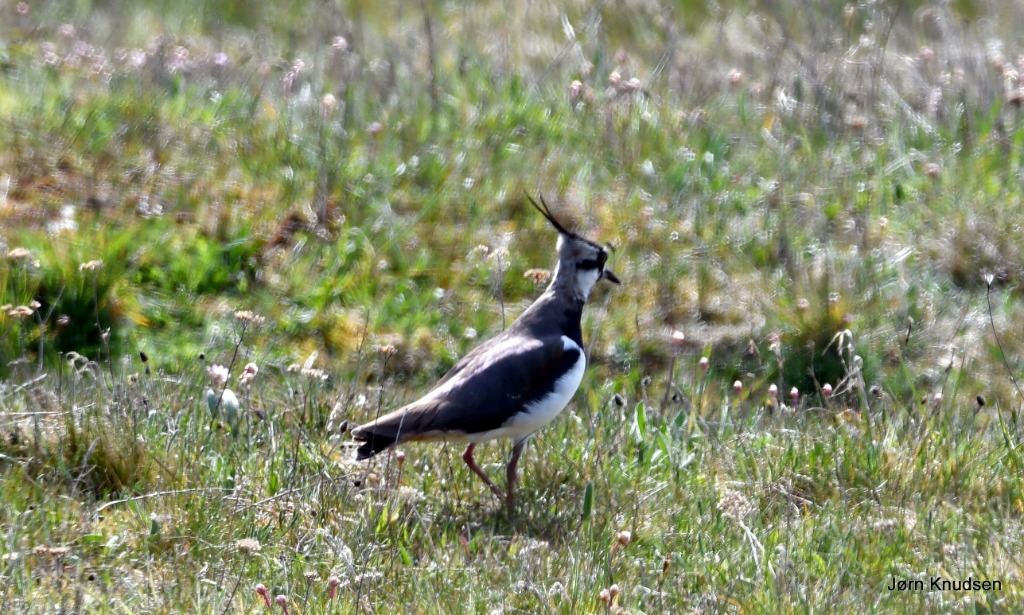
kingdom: Animalia
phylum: Chordata
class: Aves
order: Charadriiformes
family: Charadriidae
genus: Vanellus
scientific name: Vanellus vanellus
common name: Vibe
